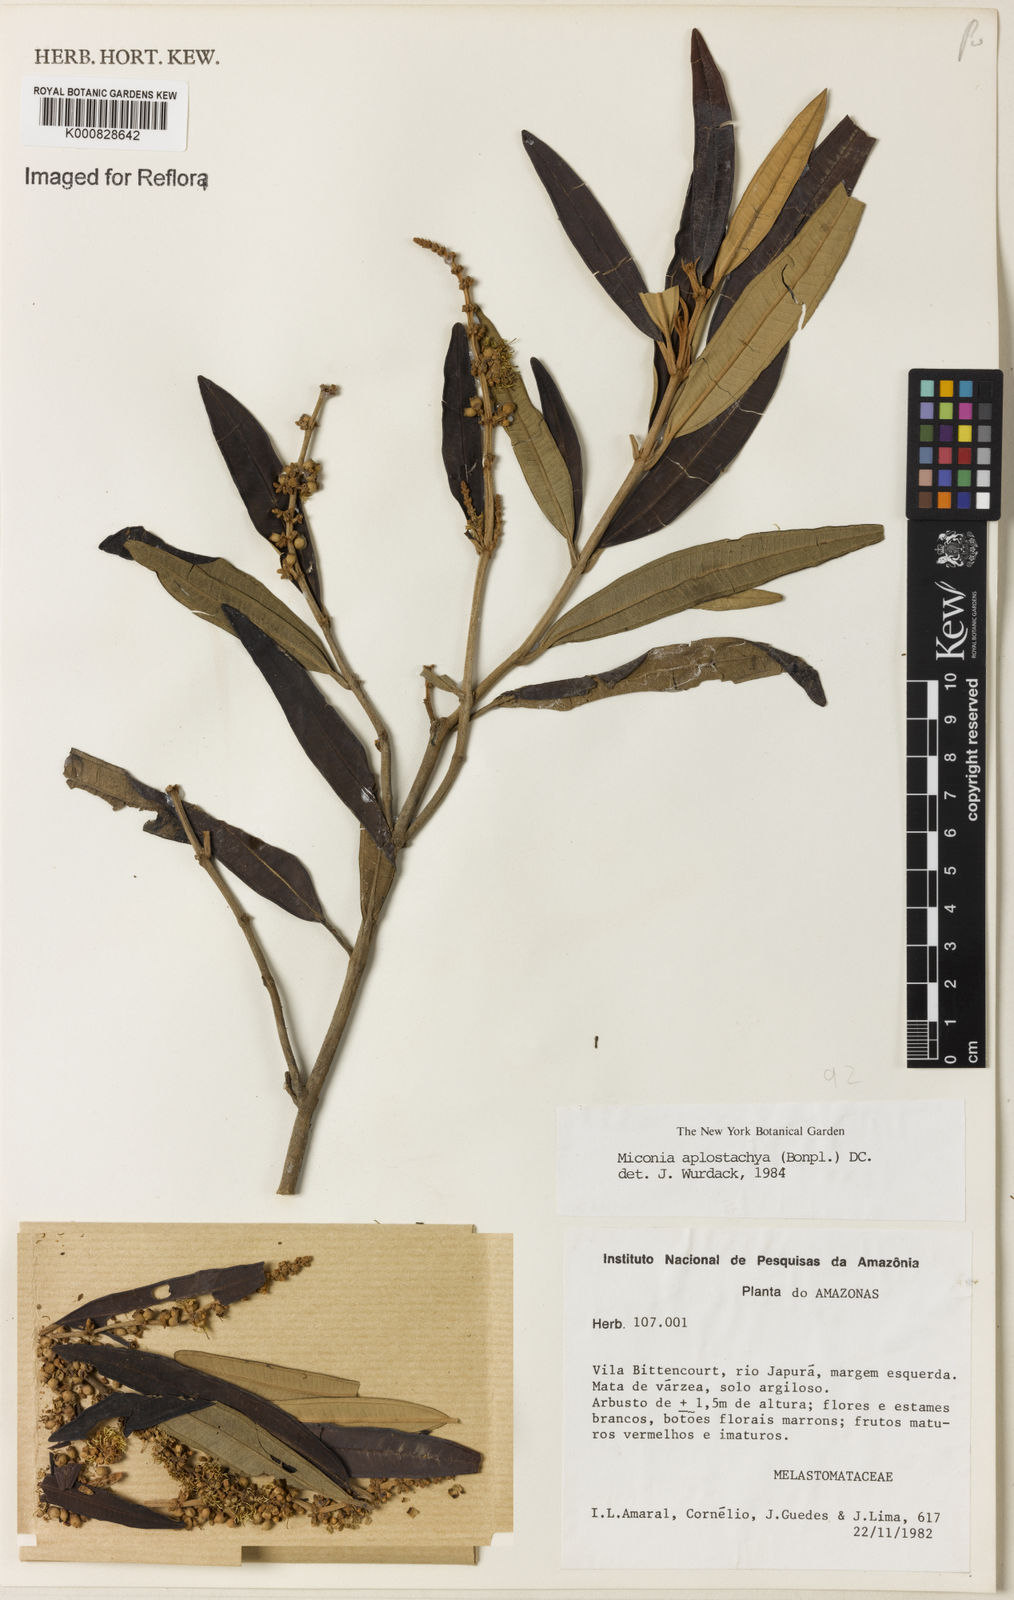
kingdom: Plantae
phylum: Tracheophyta
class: Magnoliopsida
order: Myrtales
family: Melastomataceae
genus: Miconia
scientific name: Miconia aplostachya
